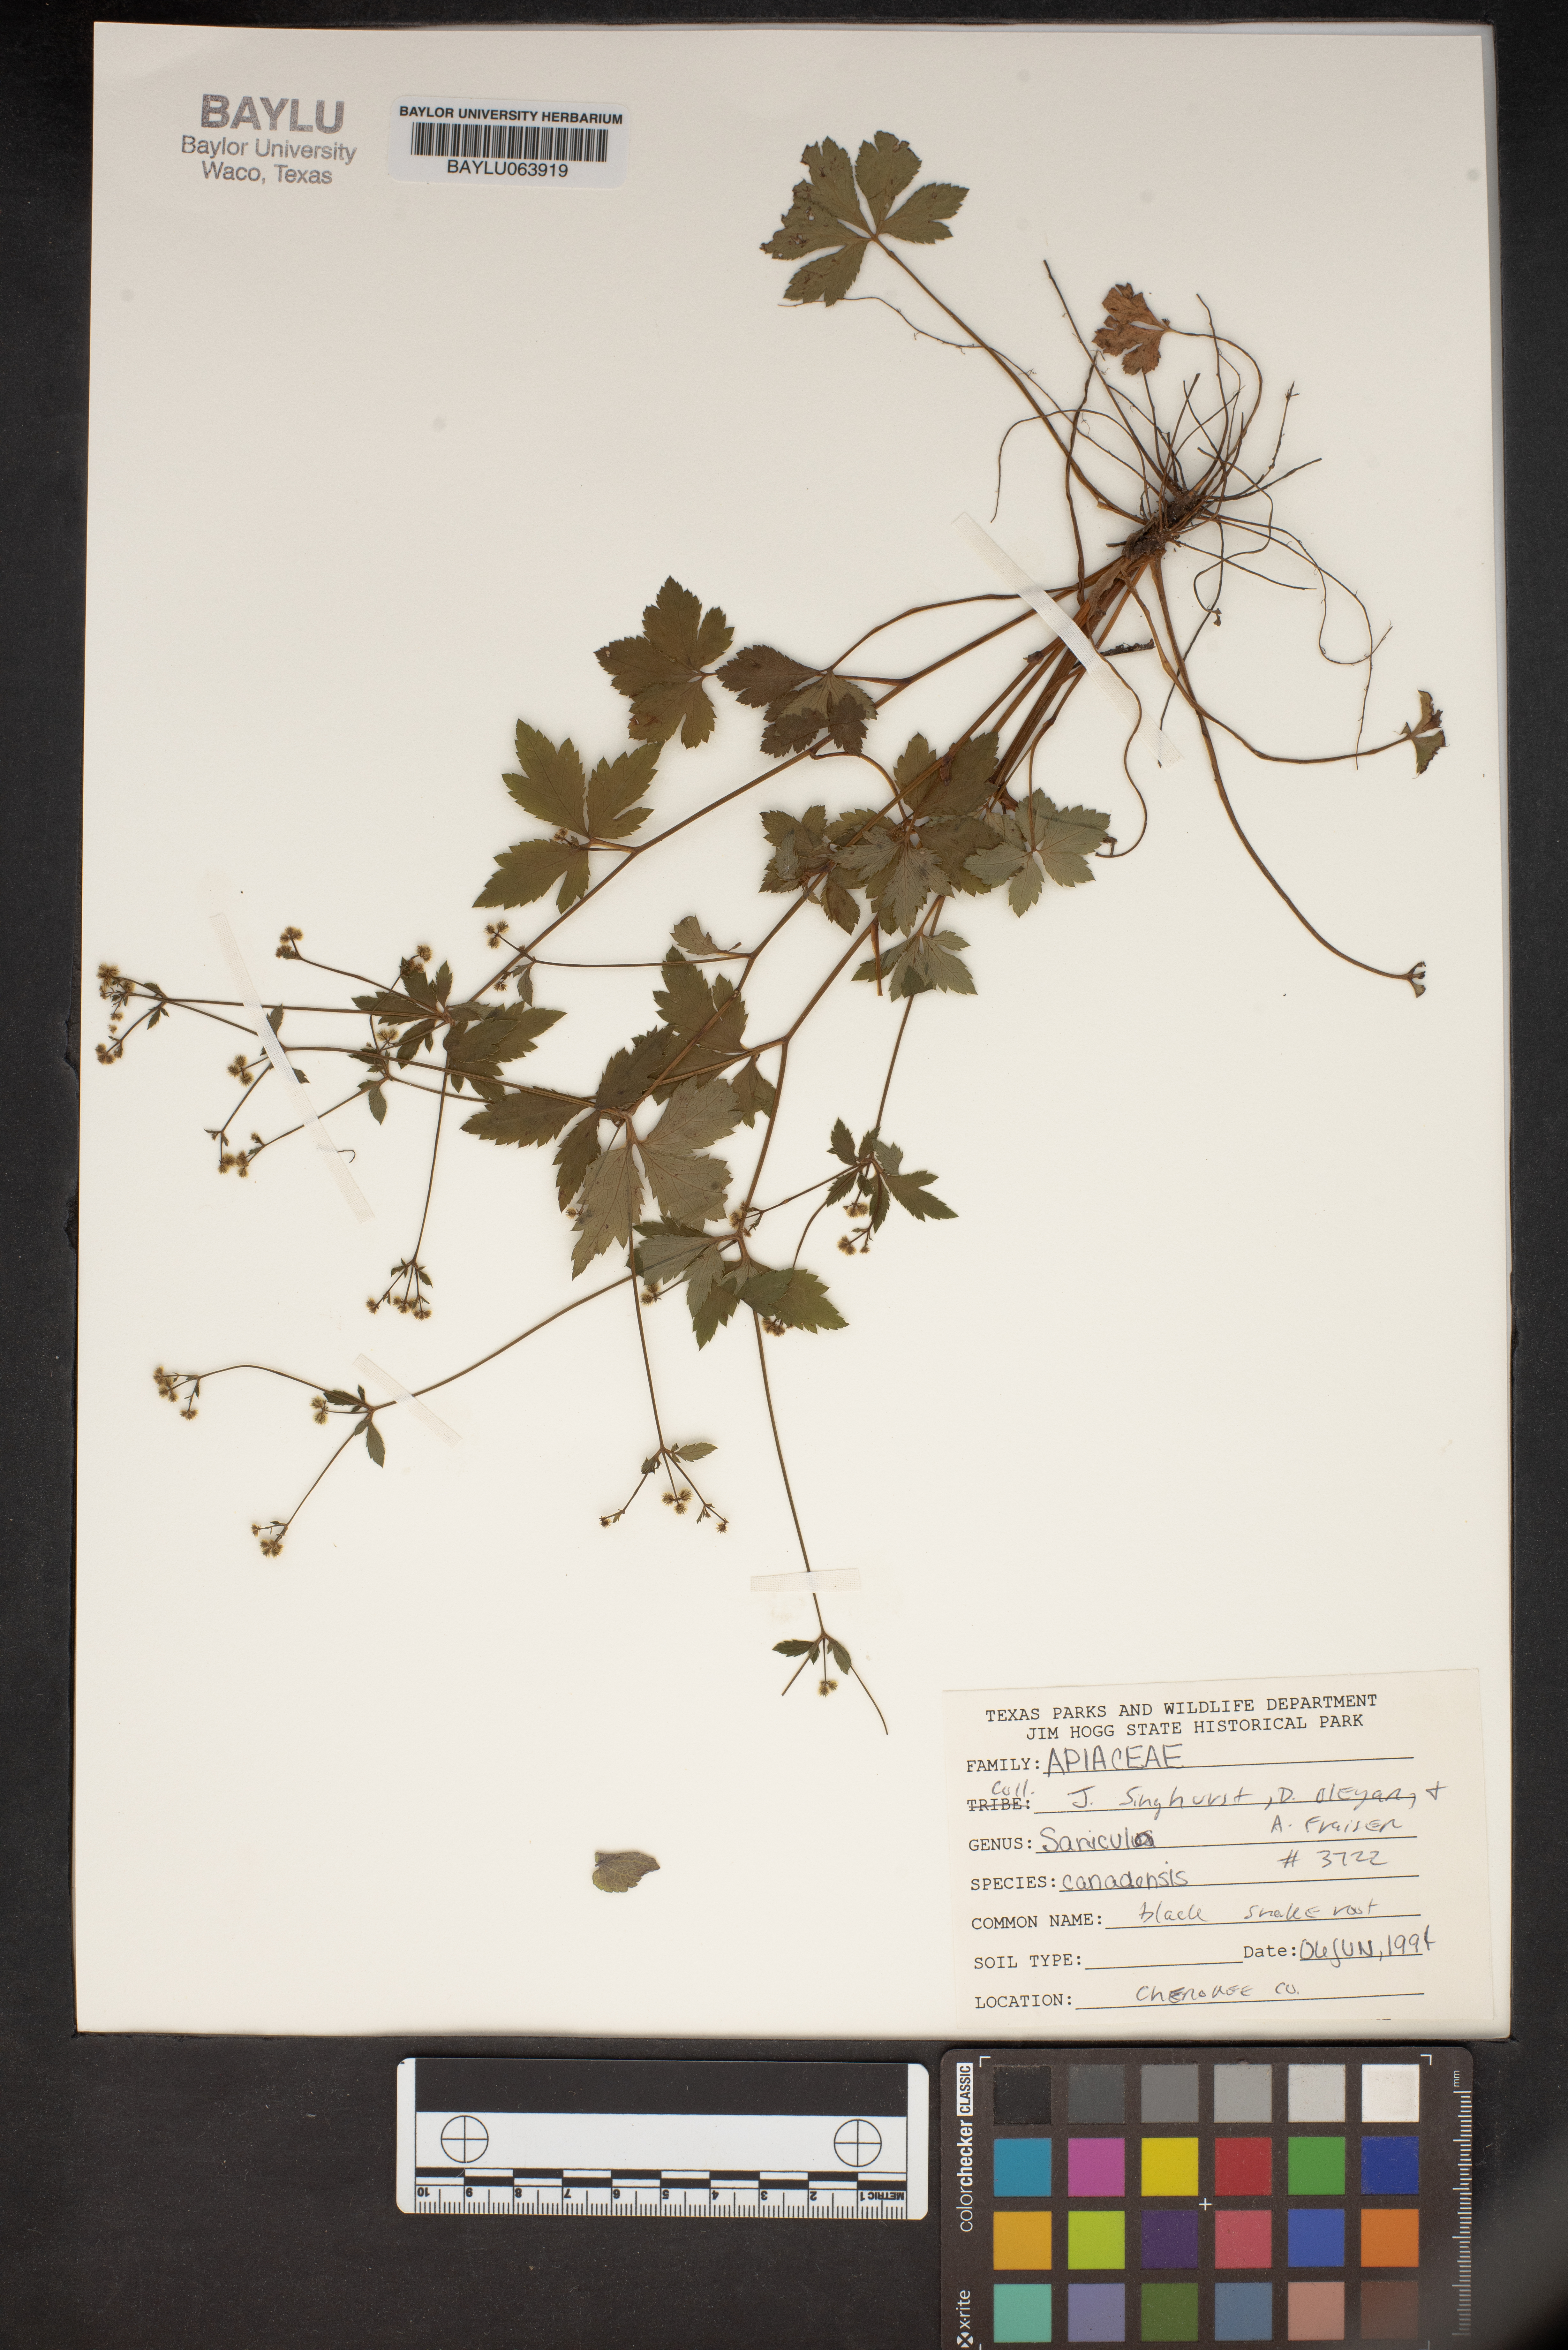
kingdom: Plantae
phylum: Tracheophyta
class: Magnoliopsida
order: Apiales
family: Apiaceae
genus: Sanicula
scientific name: Sanicula canadensis
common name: Canada sanicle
